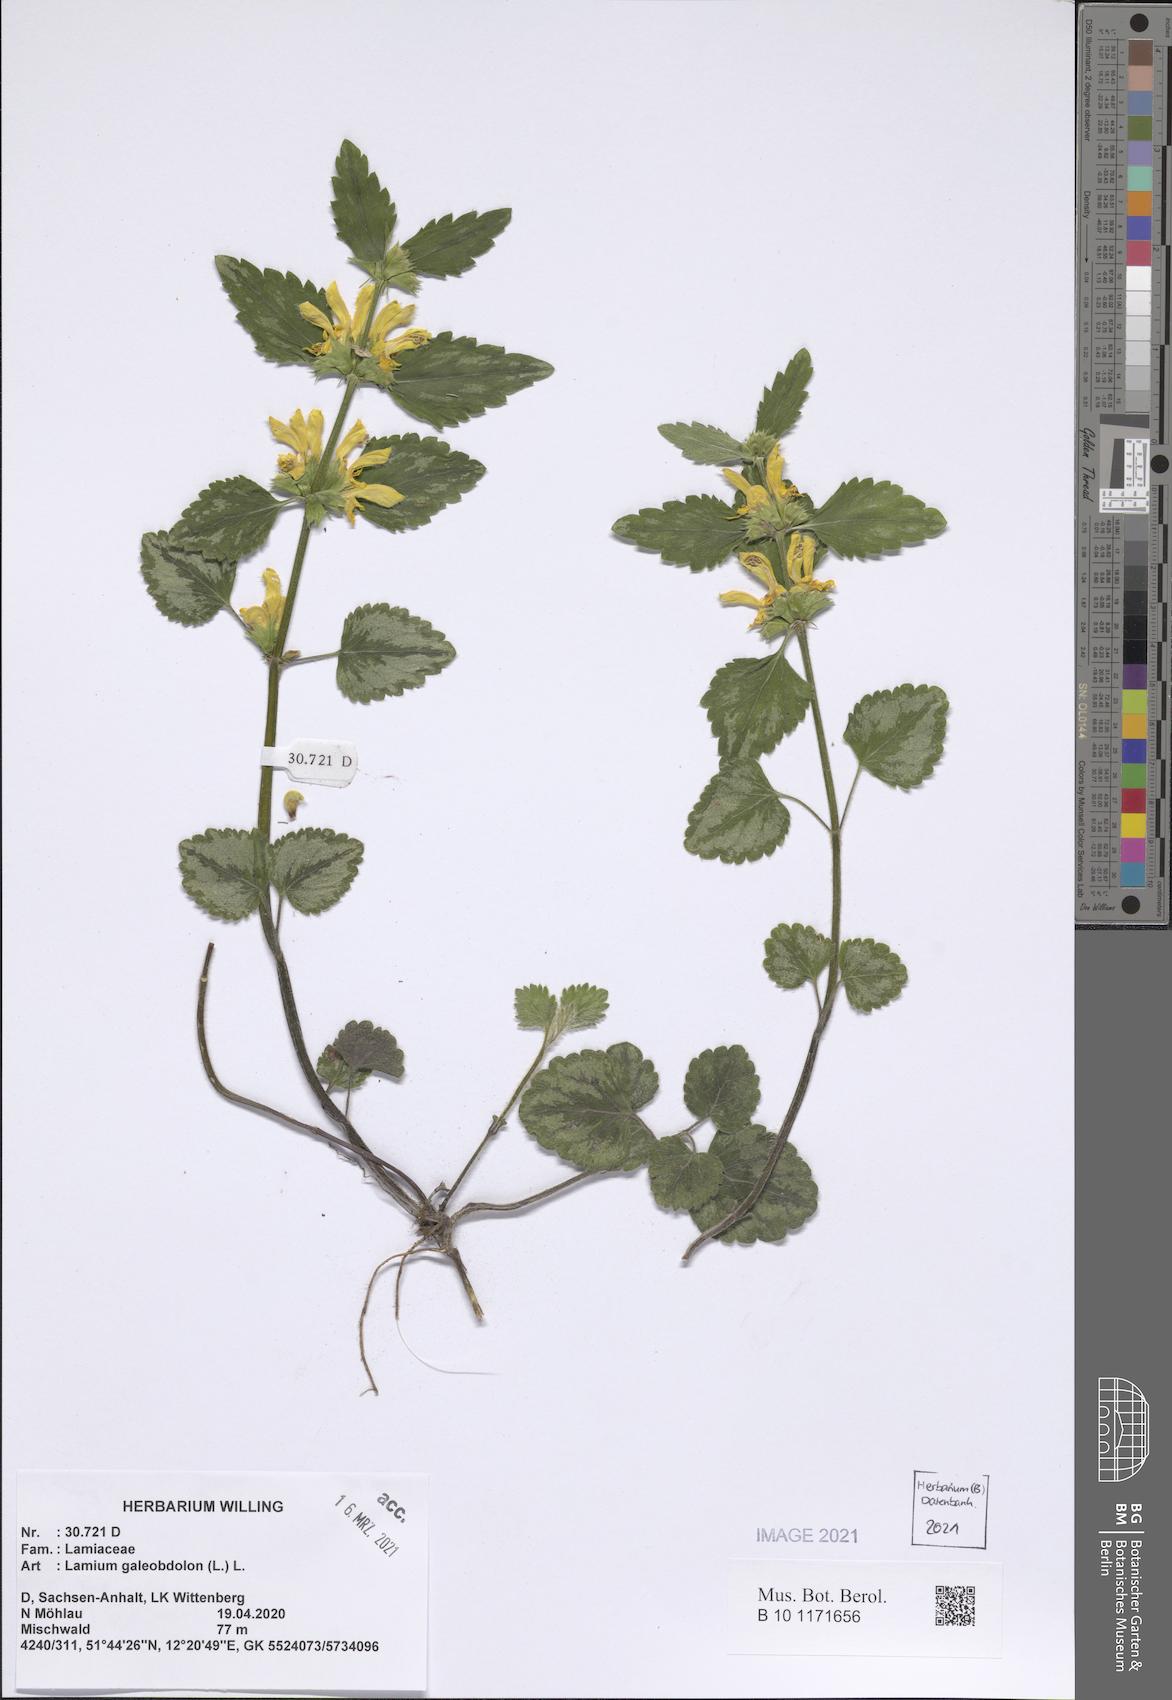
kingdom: Plantae
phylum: Tracheophyta
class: Magnoliopsida
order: Lamiales
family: Lamiaceae
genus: Lamium
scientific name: Lamium galeobdolon
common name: Yellow archangel
